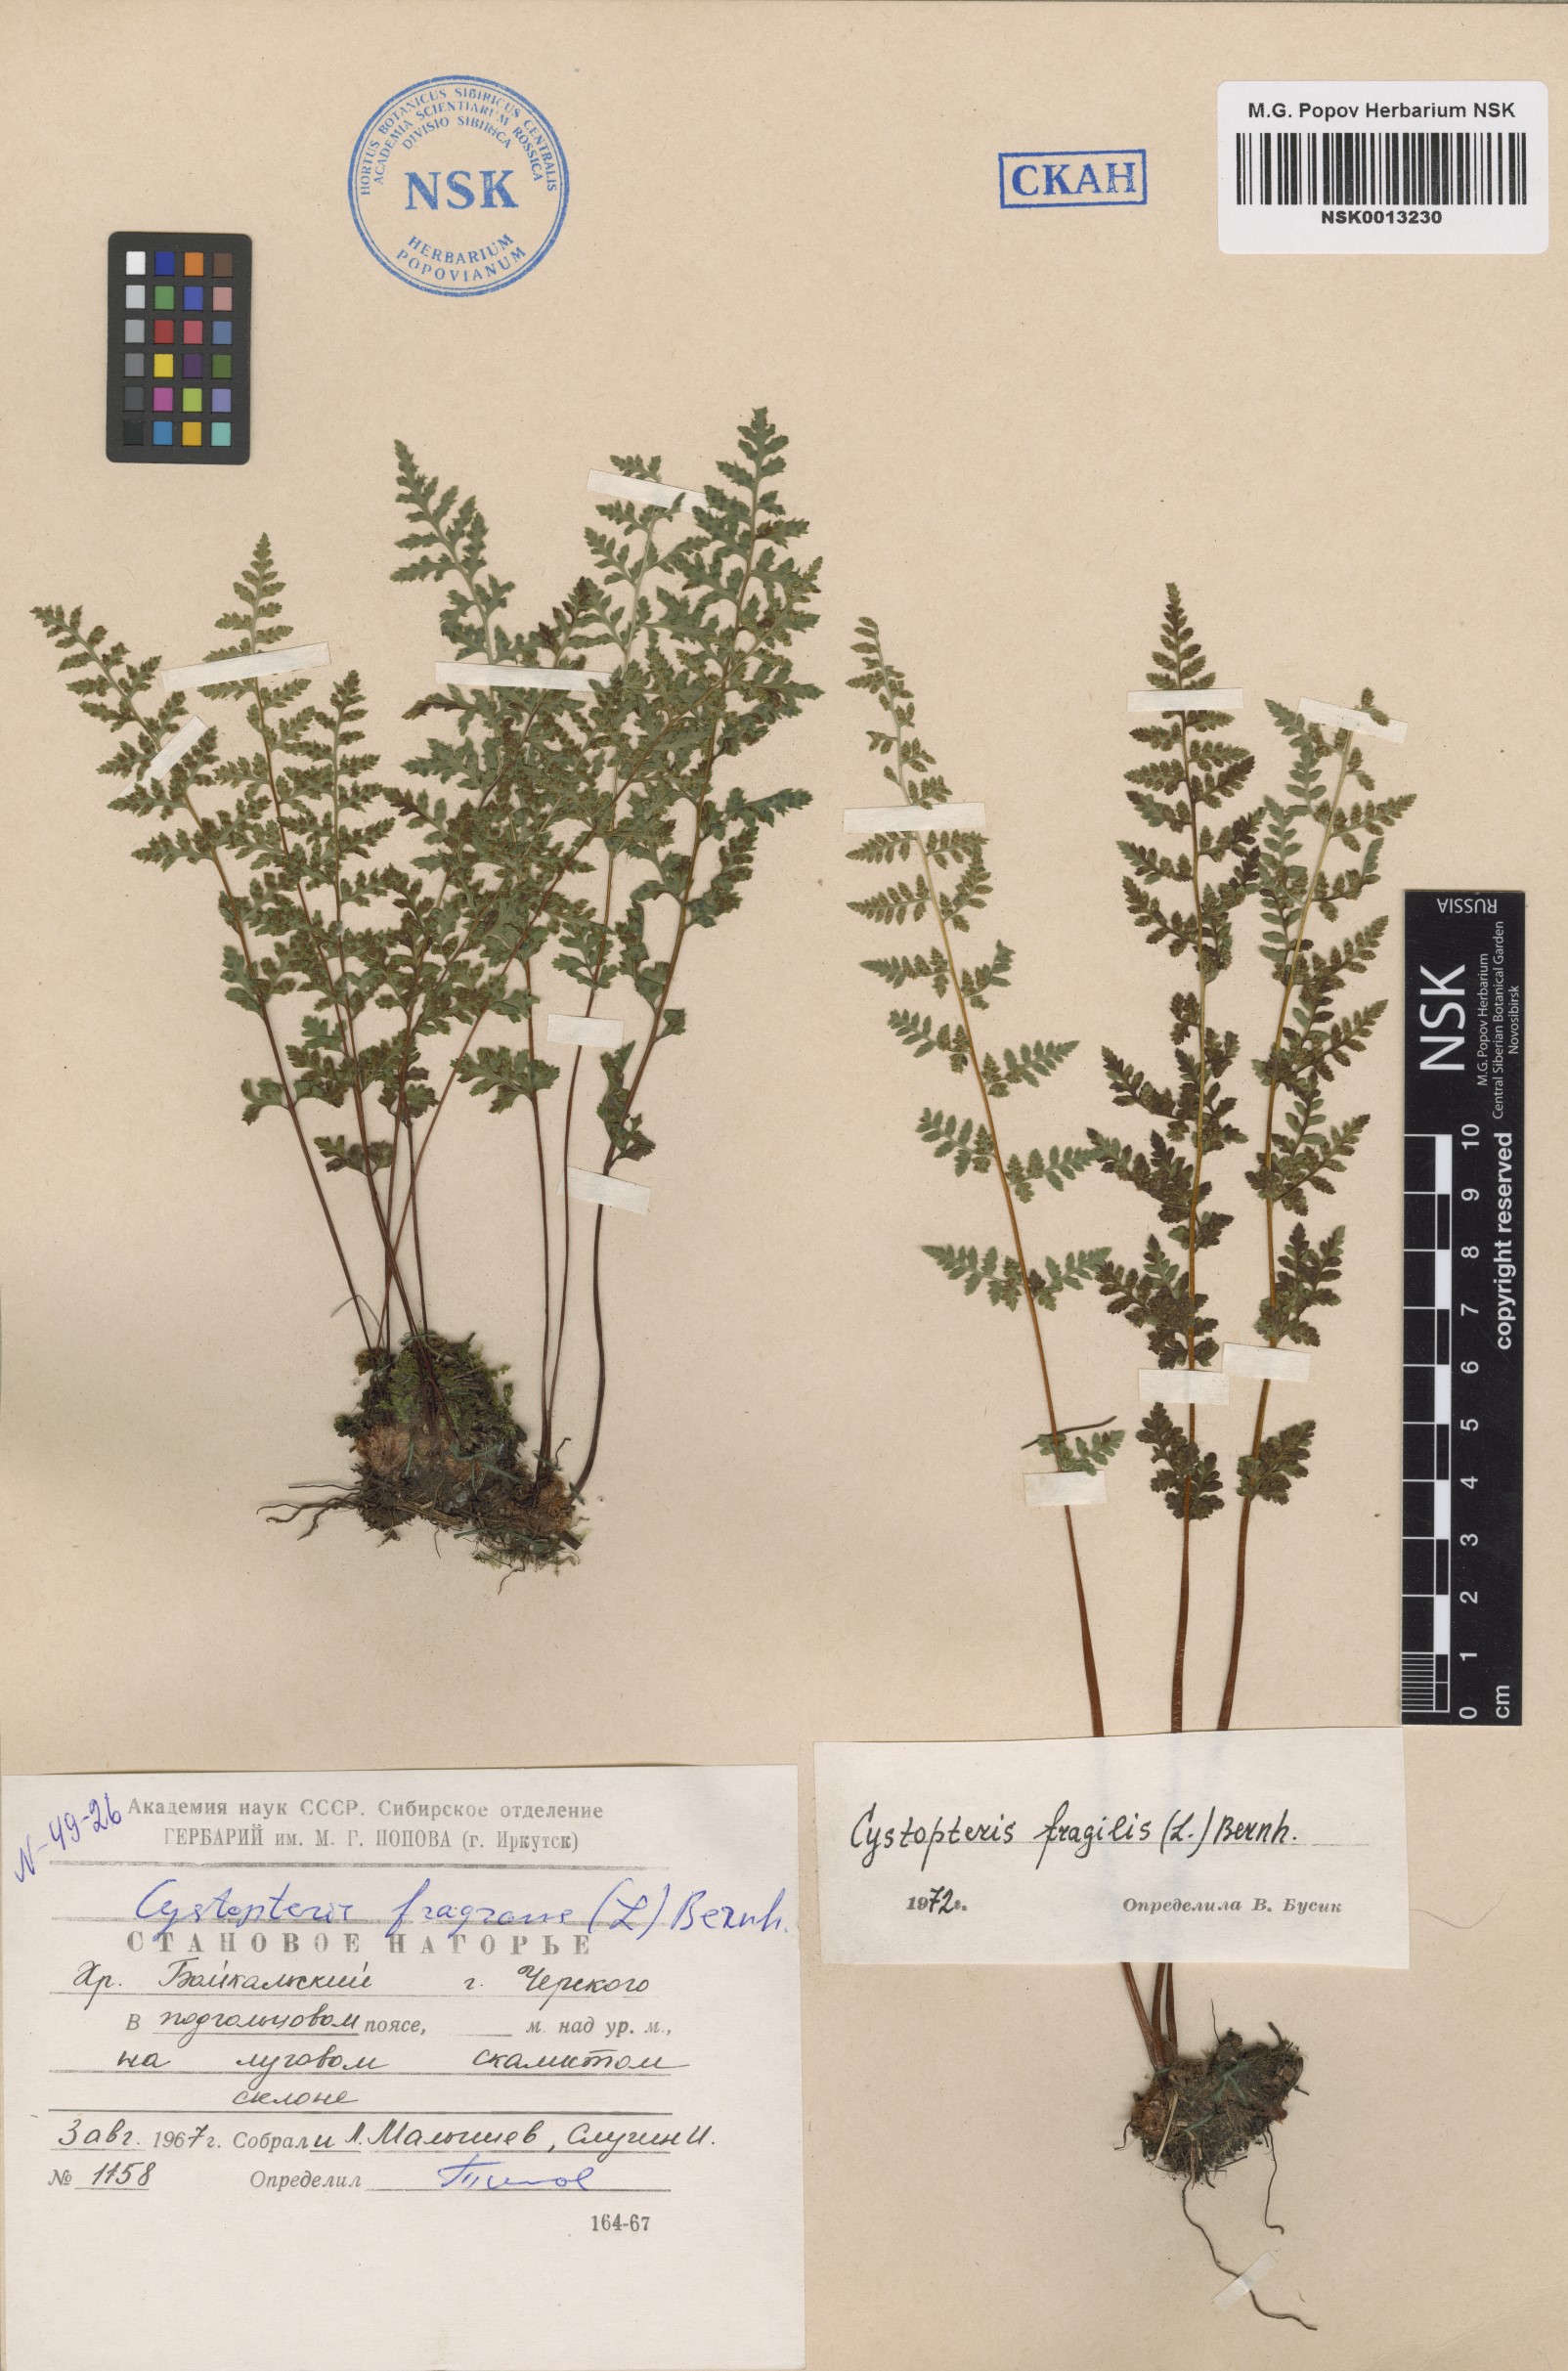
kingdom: Plantae
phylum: Tracheophyta
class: Polypodiopsida
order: Polypodiales
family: Cystopteridaceae
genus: Cystopteris
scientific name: Cystopteris fragilis
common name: Brittle bladder fern
